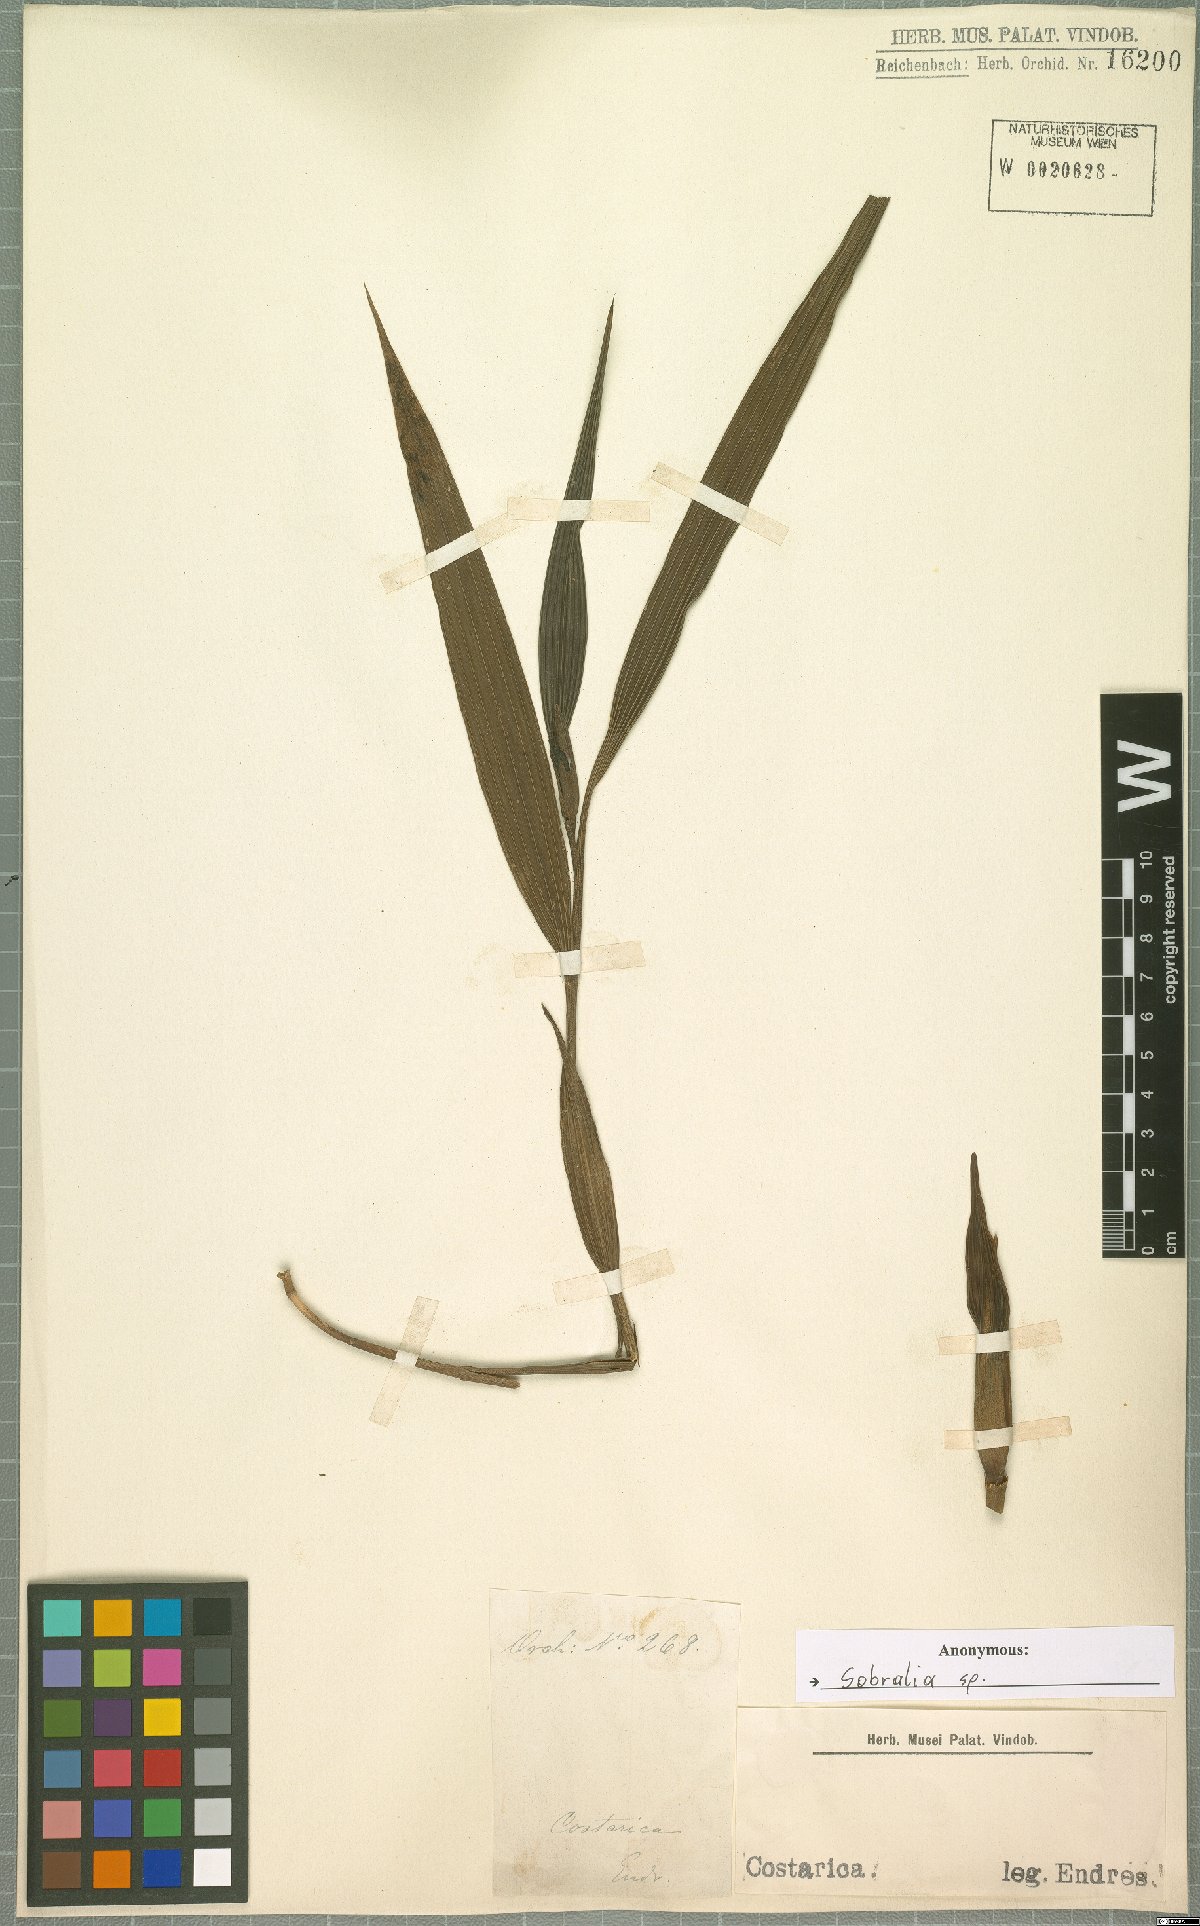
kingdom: Plantae
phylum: Tracheophyta
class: Liliopsida
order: Asparagales
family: Orchidaceae
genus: Sobralia
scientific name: Sobralia
